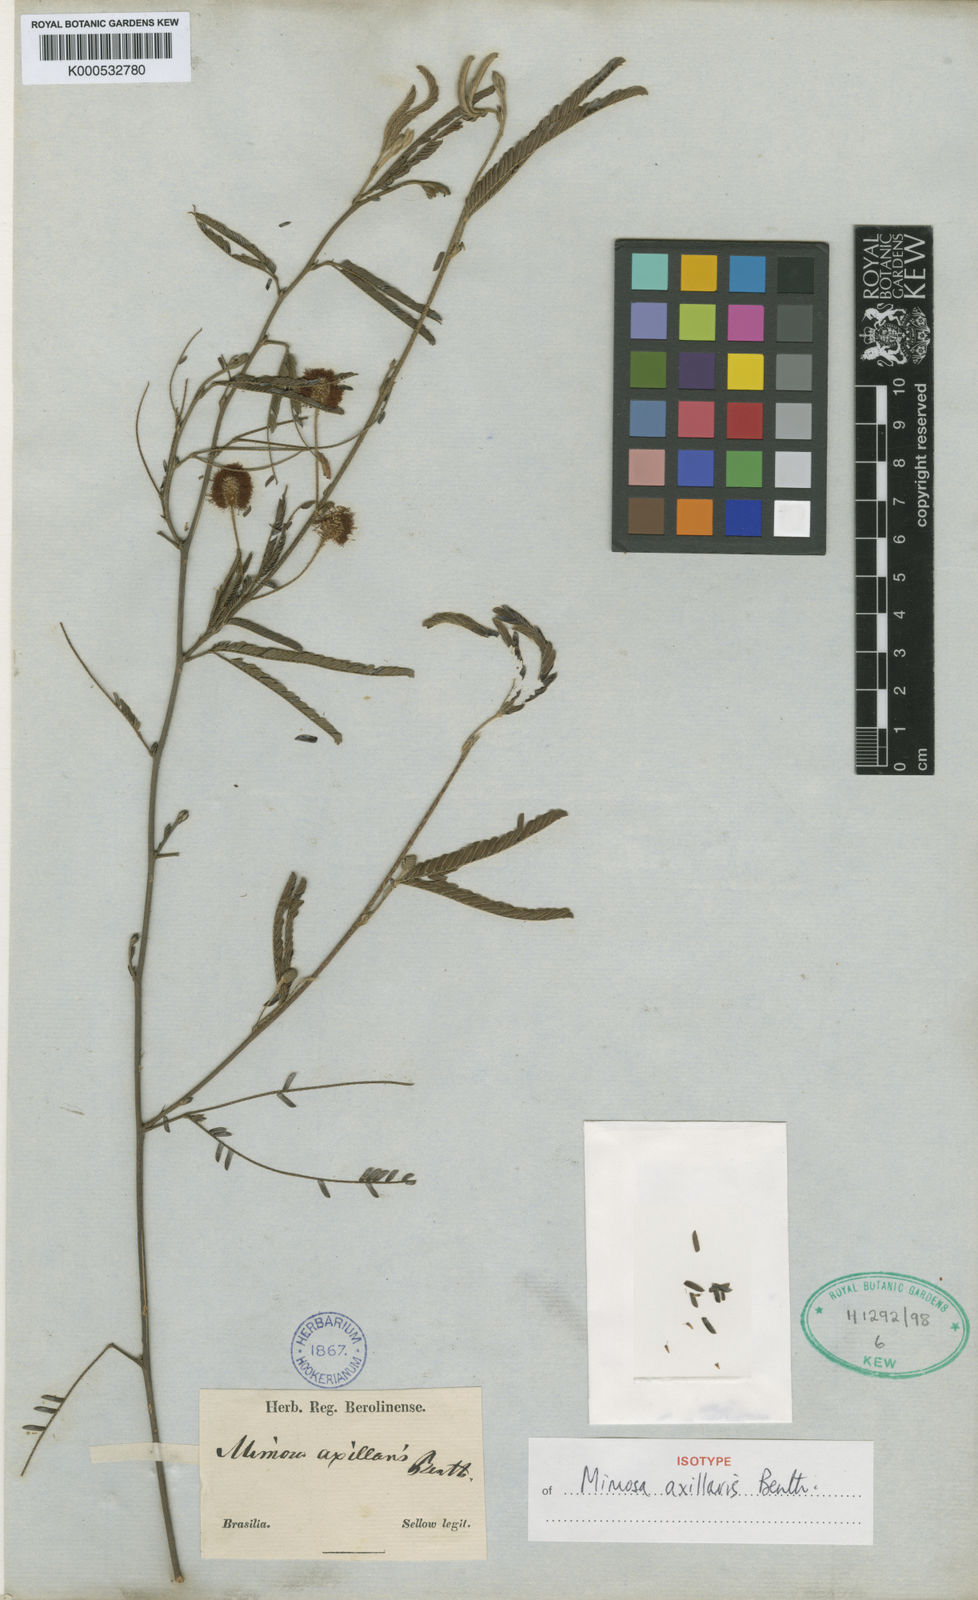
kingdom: Plantae
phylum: Tracheophyta
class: Magnoliopsida
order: Fabales
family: Fabaceae
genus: Mimosa
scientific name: Mimosa axillaris
